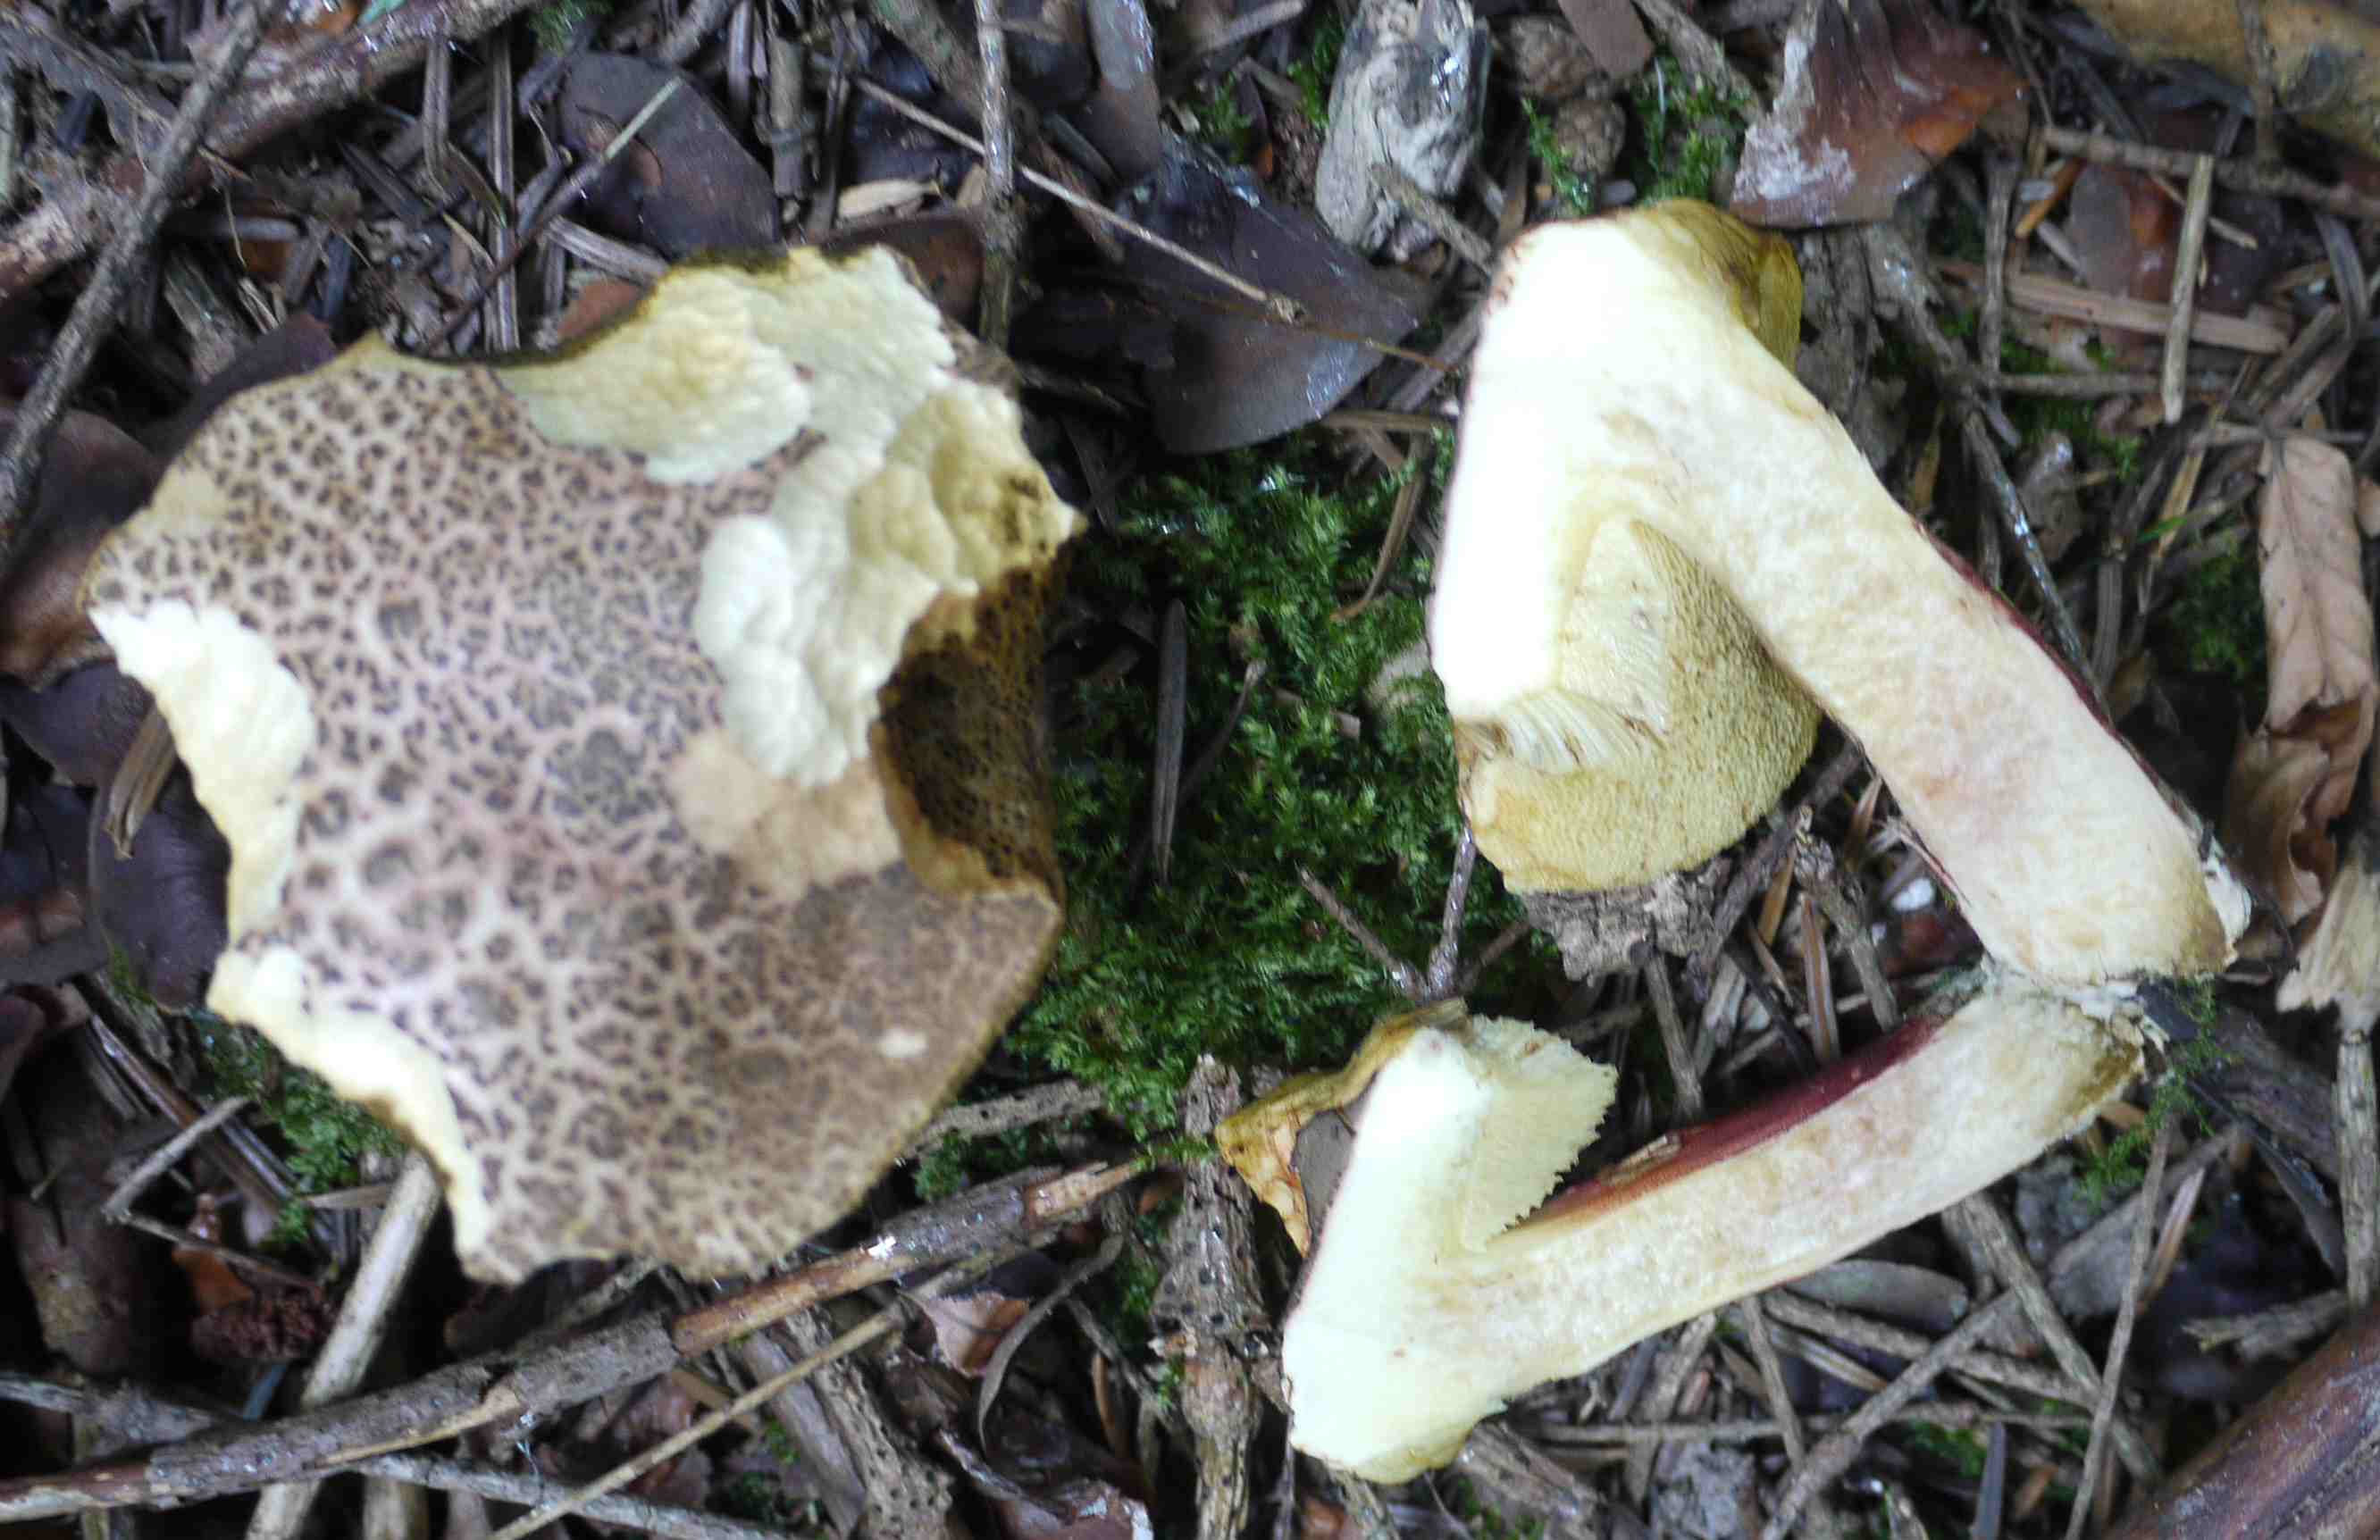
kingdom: Fungi
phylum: Basidiomycota
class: Agaricomycetes
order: Boletales
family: Boletaceae
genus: Xerocomellus
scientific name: Xerocomellus chrysenteron
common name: rødsprukken rørhat
